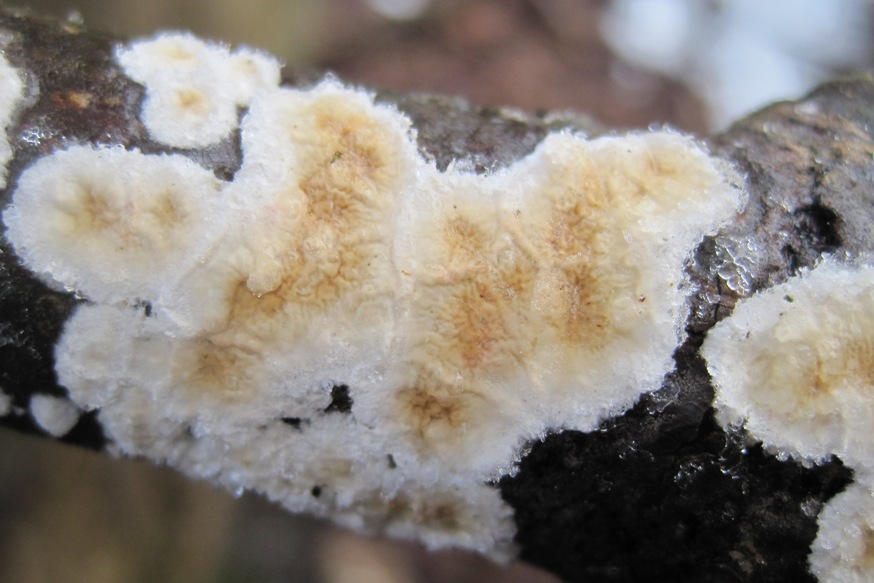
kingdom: Fungi
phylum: Basidiomycota
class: Agaricomycetes
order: Polyporales
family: Irpicaceae
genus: Byssomerulius
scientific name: Byssomerulius corium
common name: læder-åresvamp
